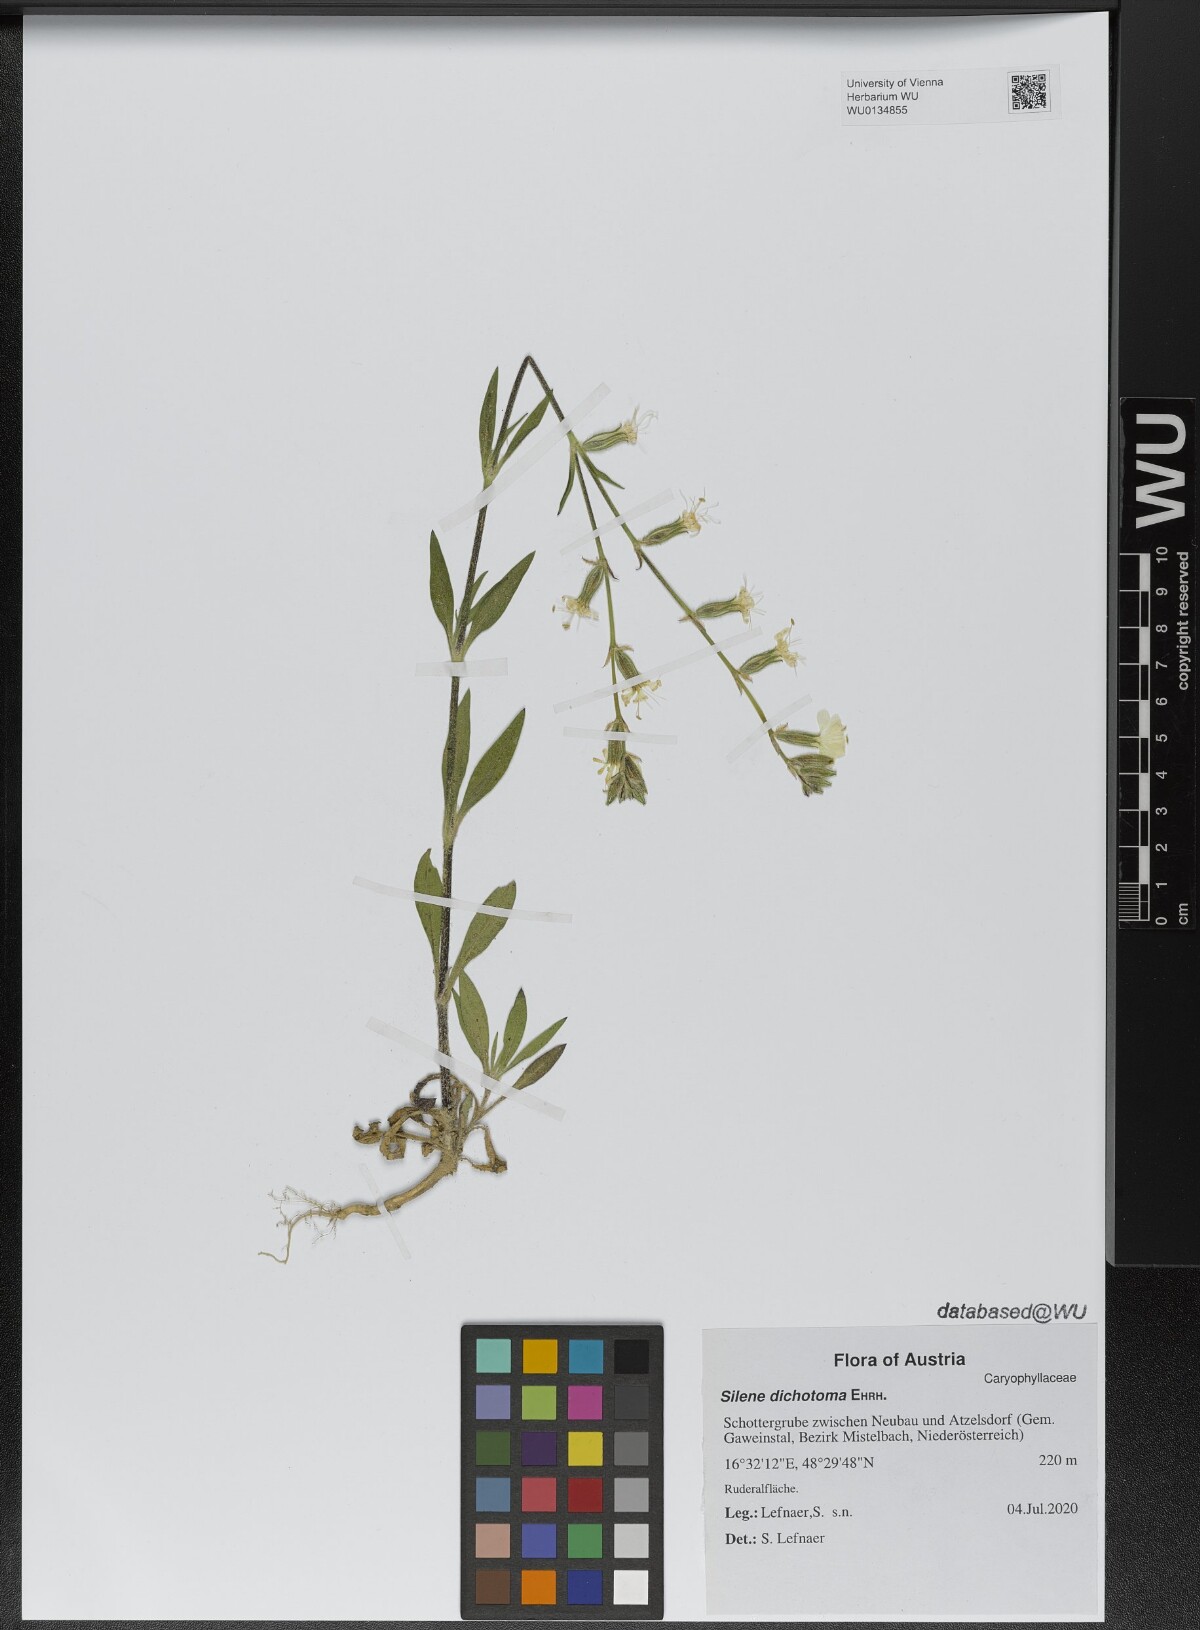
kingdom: Plantae
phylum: Tracheophyta
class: Magnoliopsida
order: Caryophyllales
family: Caryophyllaceae
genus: Silene
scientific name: Silene dichotoma
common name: Forked catchfly
